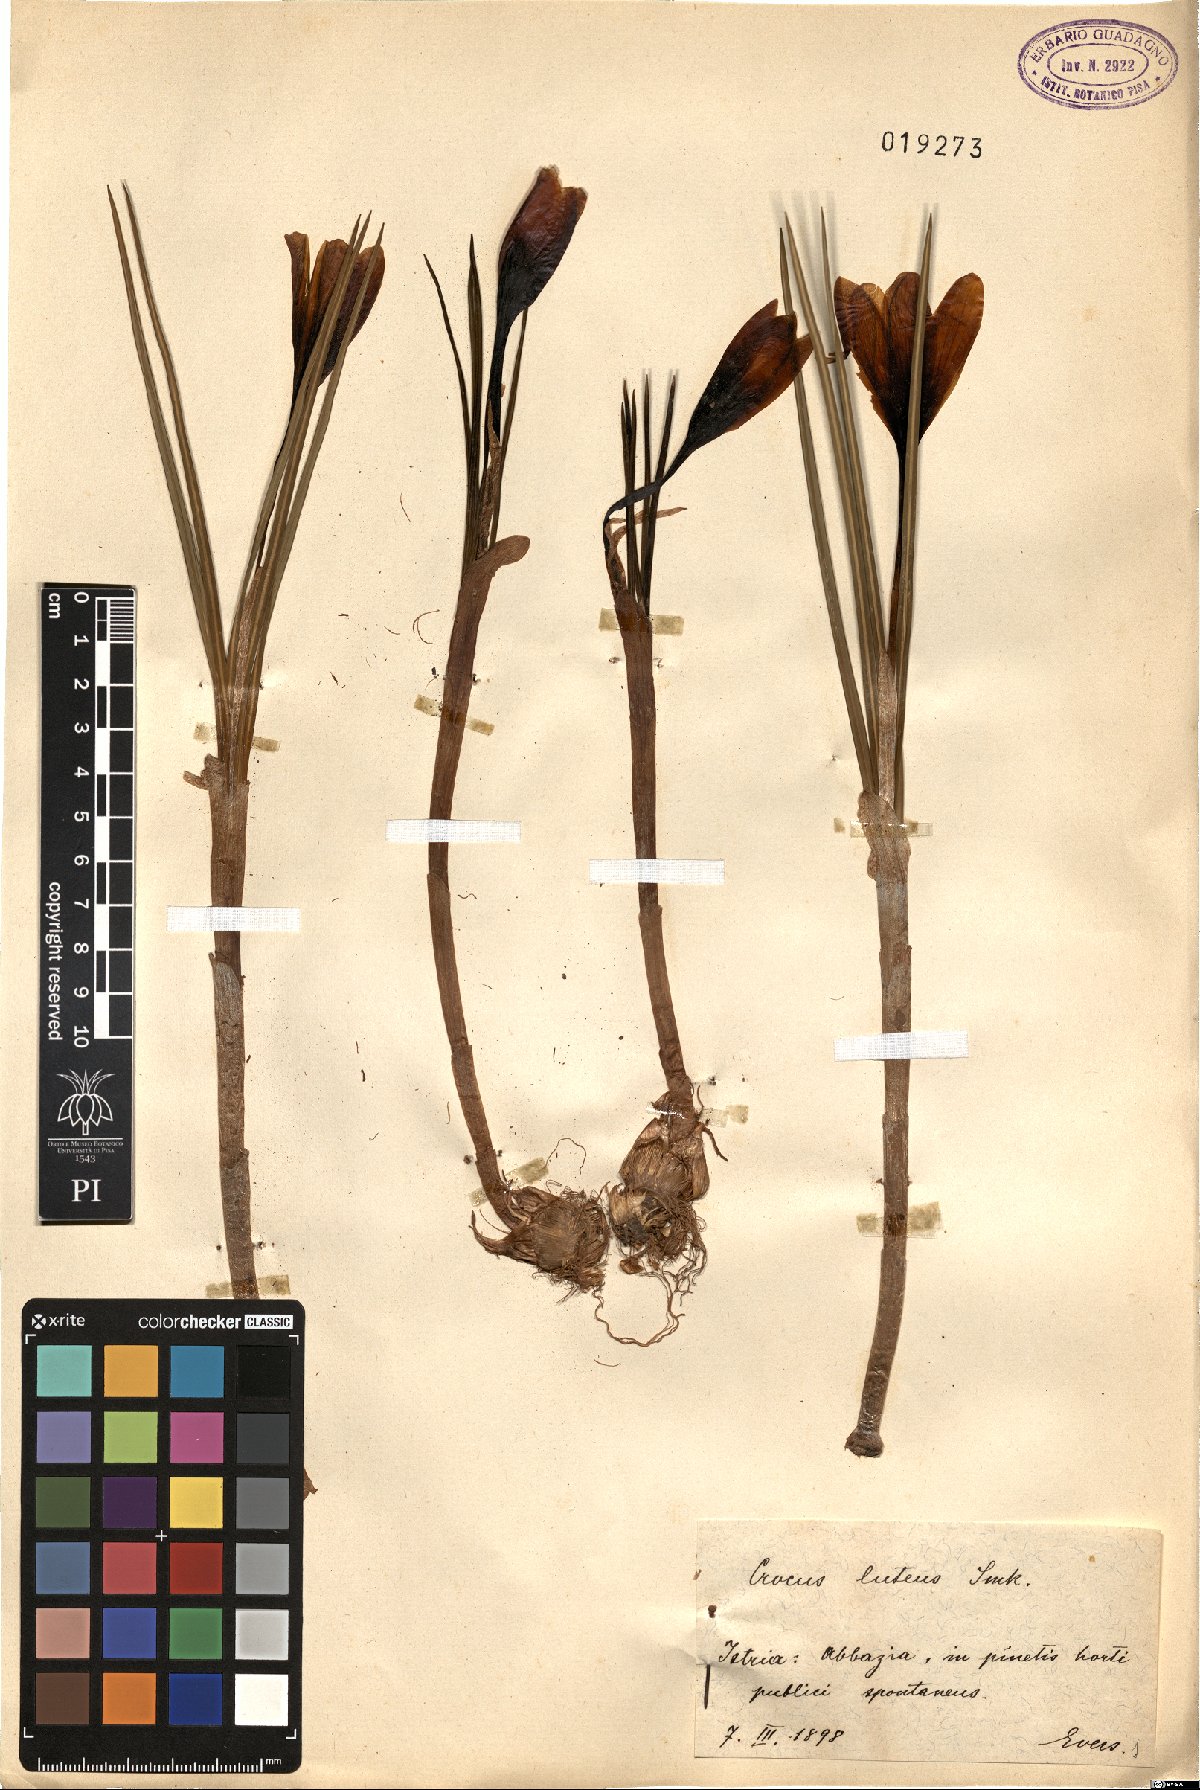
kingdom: Plantae
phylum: Tracheophyta
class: Liliopsida
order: Asparagales
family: Iridaceae
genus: Crocus
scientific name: Crocus luteus
